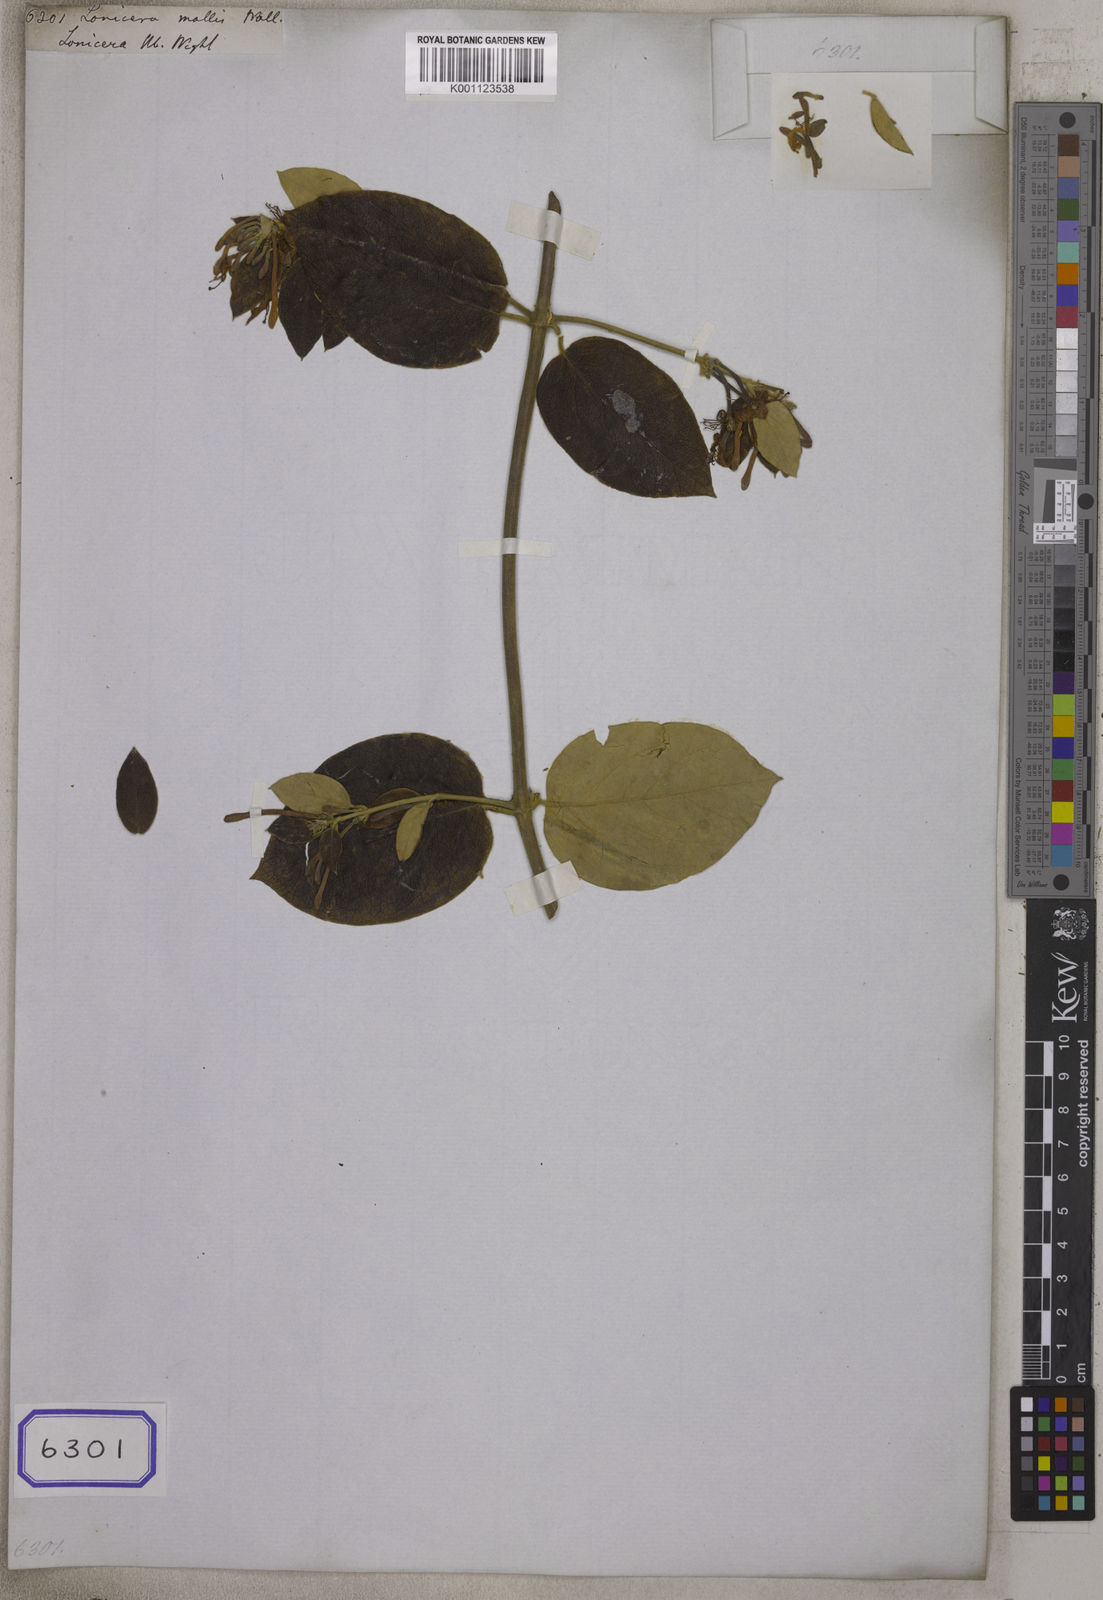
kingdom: Plantae
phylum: Tracheophyta
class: Magnoliopsida
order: Dipsacales
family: Caprifoliaceae
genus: Lonicera
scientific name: Lonicera macrantha
